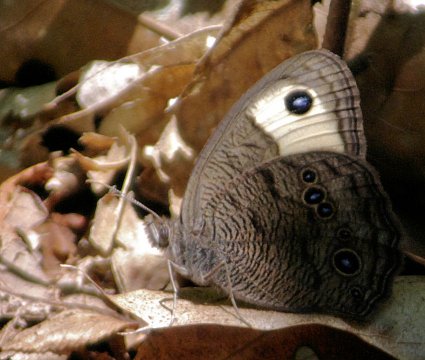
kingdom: Animalia
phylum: Arthropoda
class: Insecta
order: Lepidoptera
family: Nymphalidae
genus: Cercyonis
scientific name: Cercyonis pegala
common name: Common Wood-Nymph
